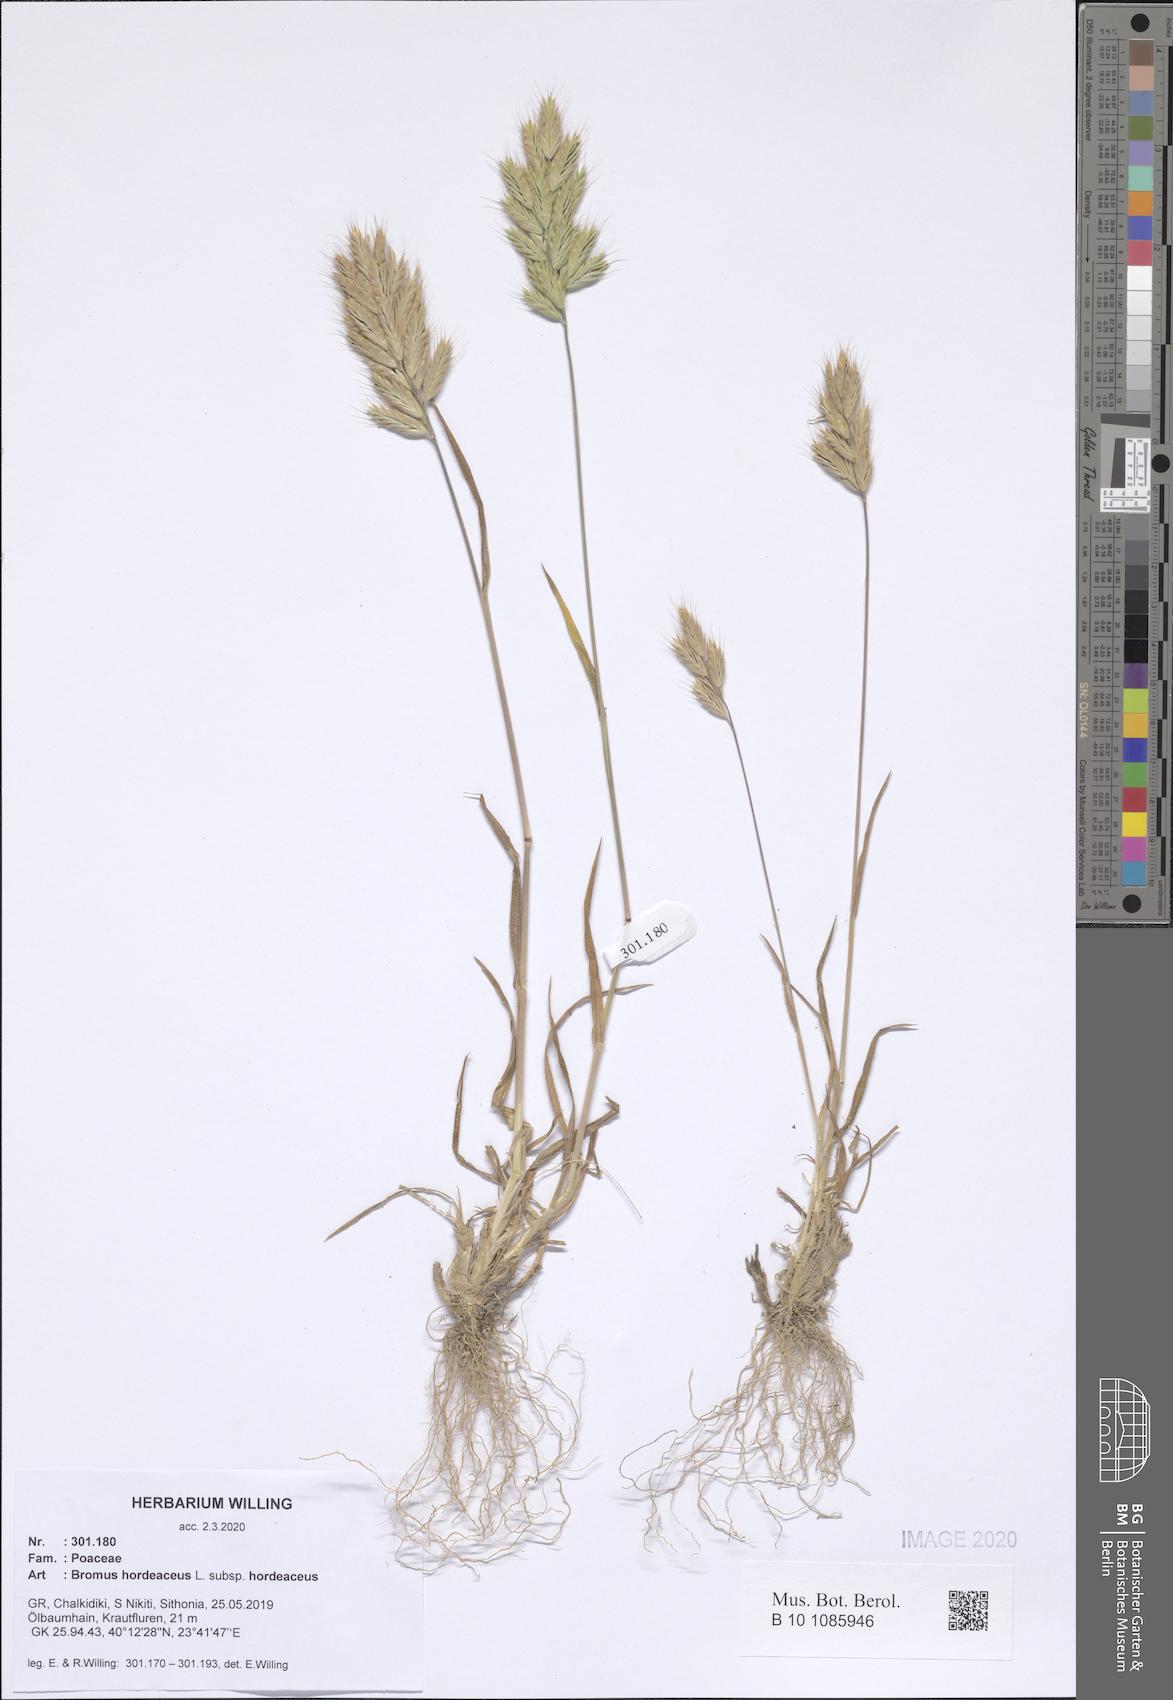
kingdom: Plantae
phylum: Tracheophyta
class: Liliopsida
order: Poales
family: Poaceae
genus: Bromus
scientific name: Bromus hordeaceus
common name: Soft brome
